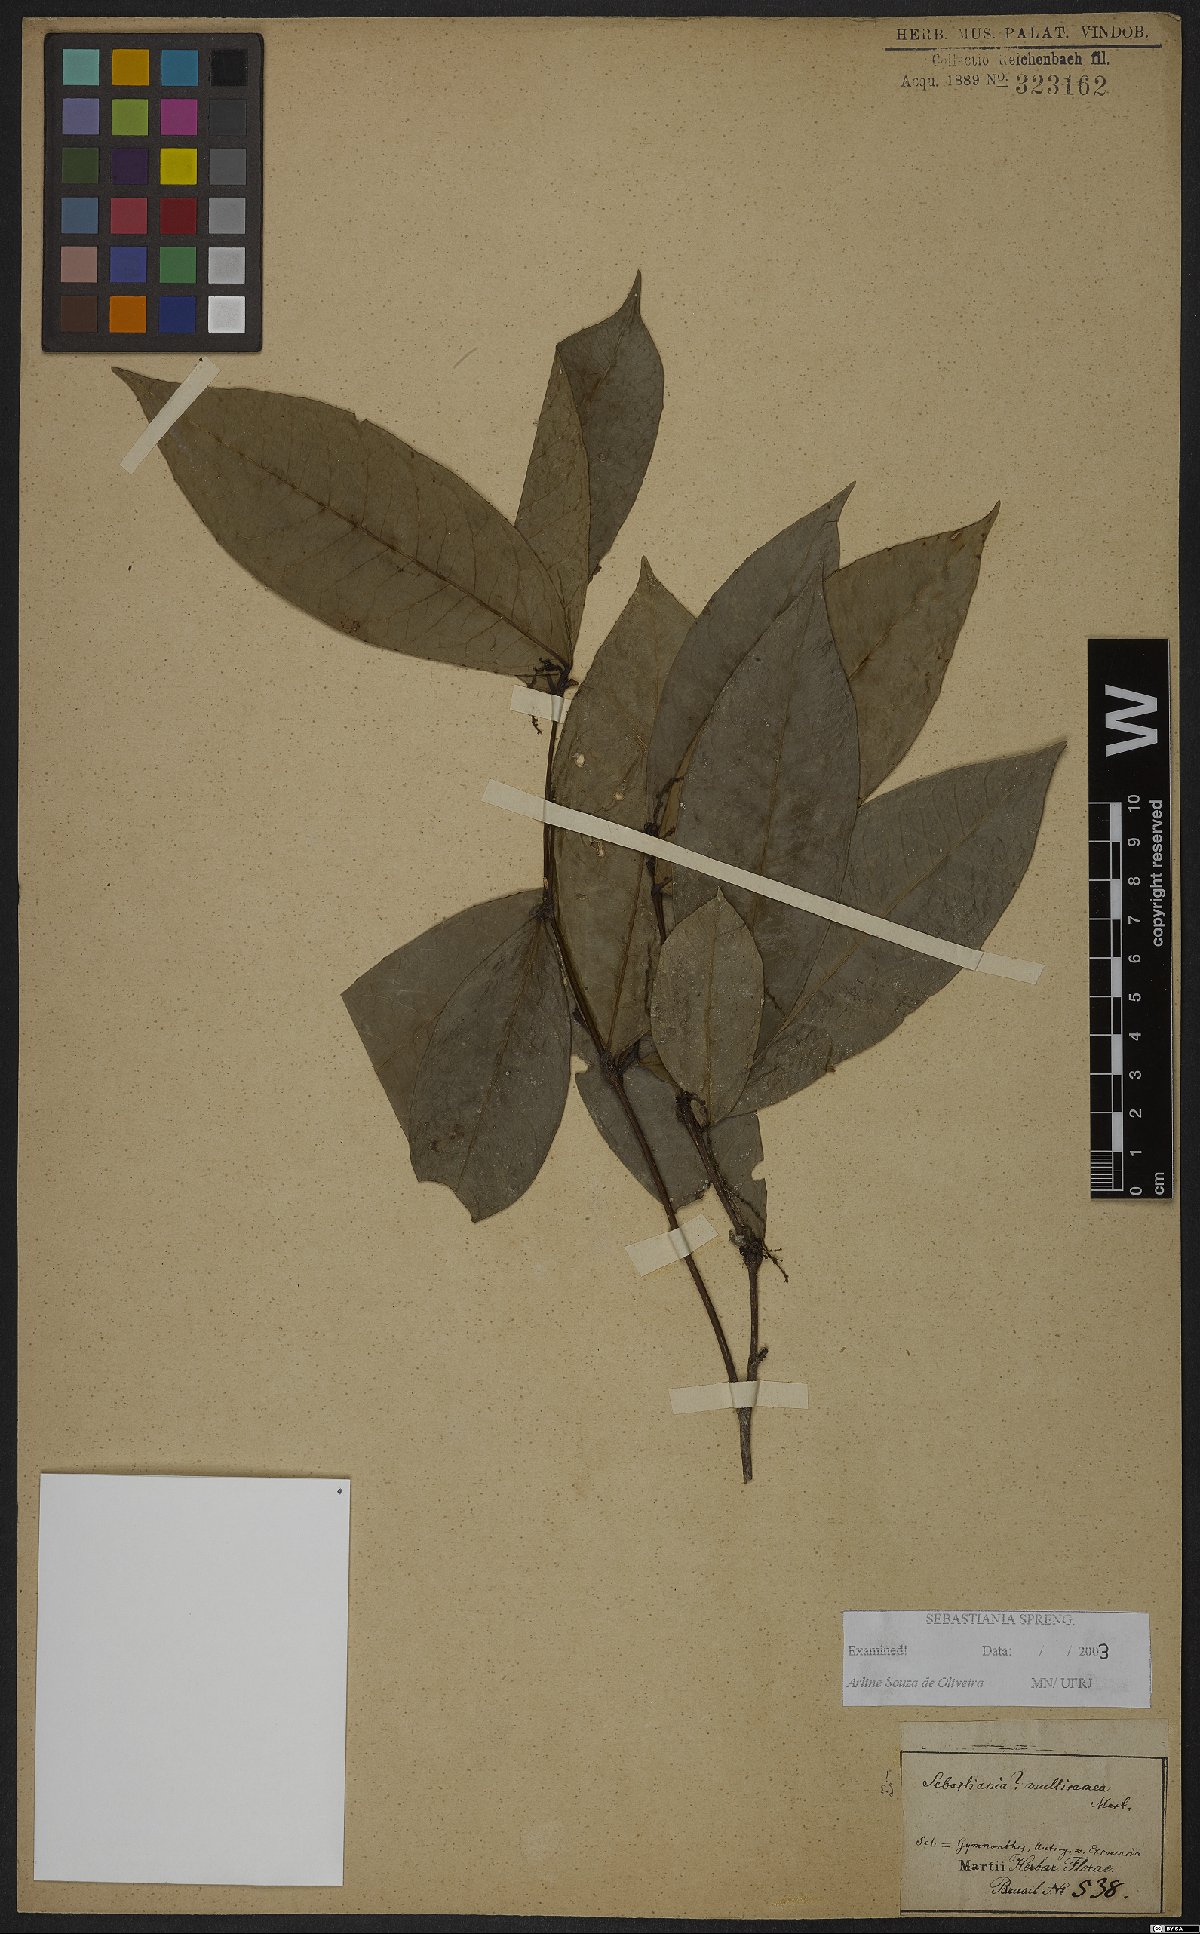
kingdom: Plantae
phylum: Tracheophyta
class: Magnoliopsida
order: Malpighiales
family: Euphorbiaceae
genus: Gymnanthes
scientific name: Gymnanthes glabrata
